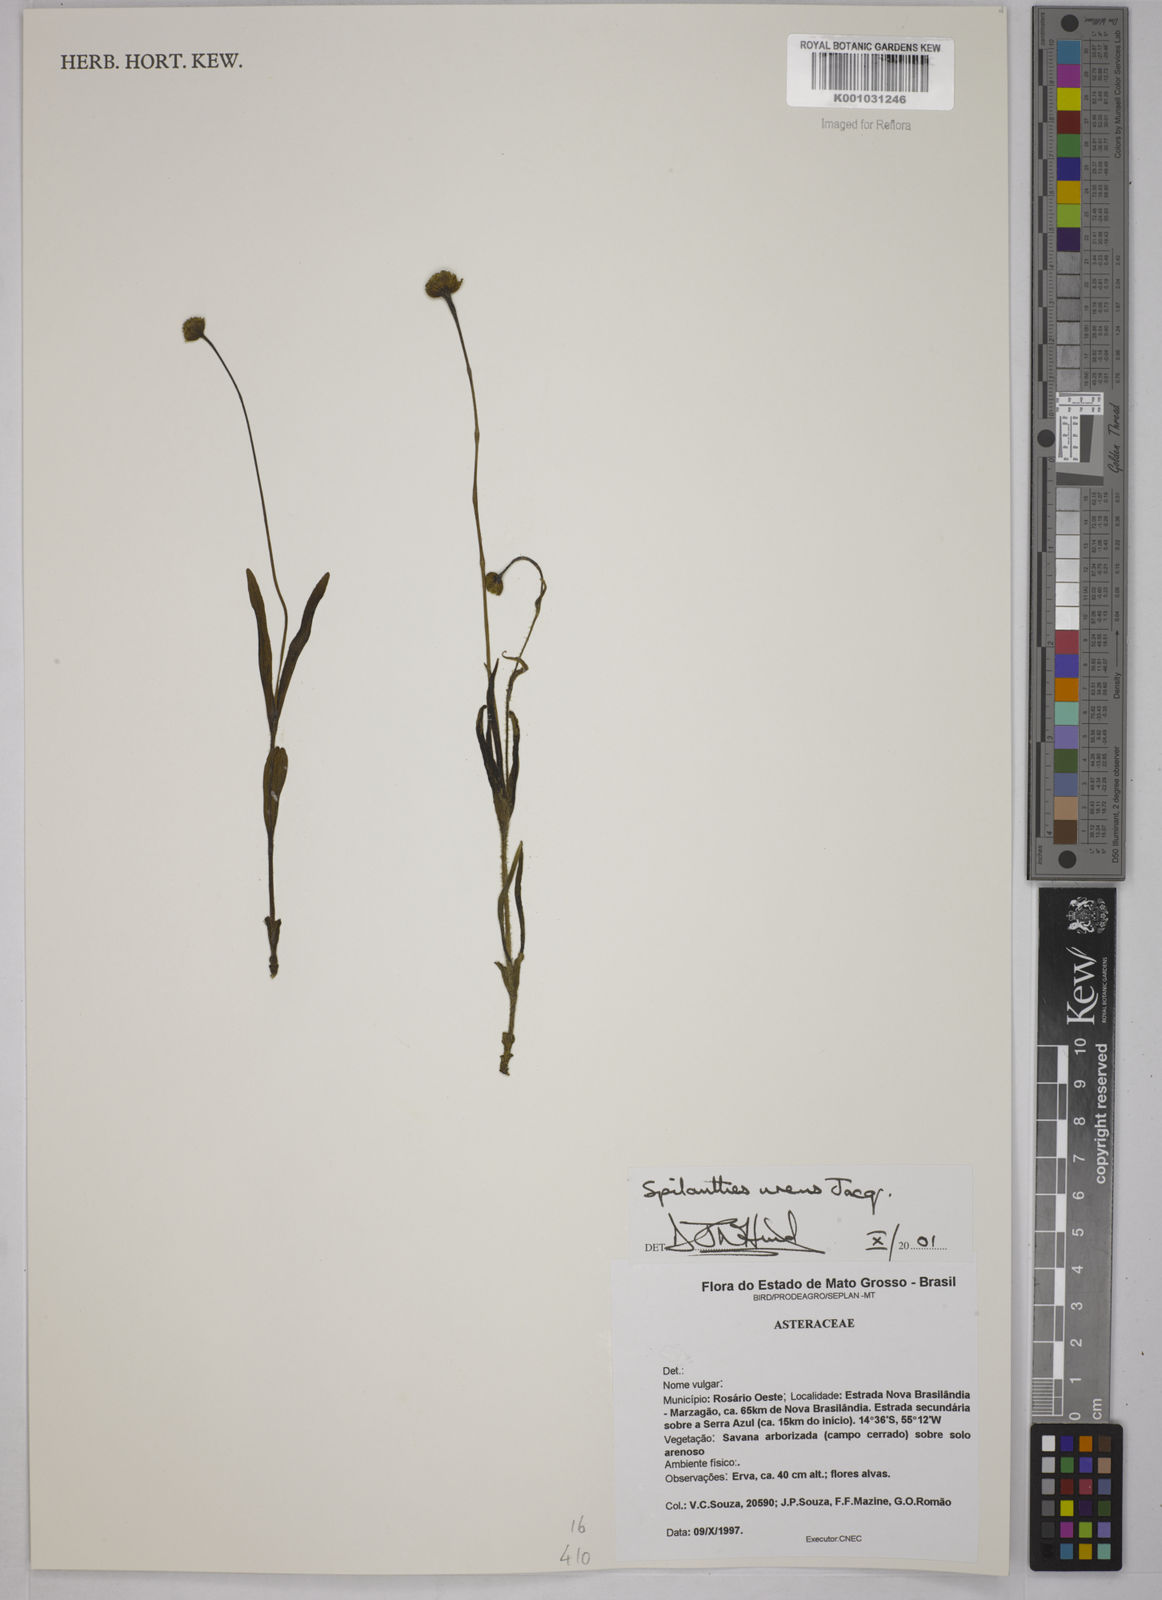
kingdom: Plantae
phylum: Tracheophyta
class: Magnoliopsida
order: Asterales
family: Asteraceae
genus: Spilanthes
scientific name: Spilanthes urens
